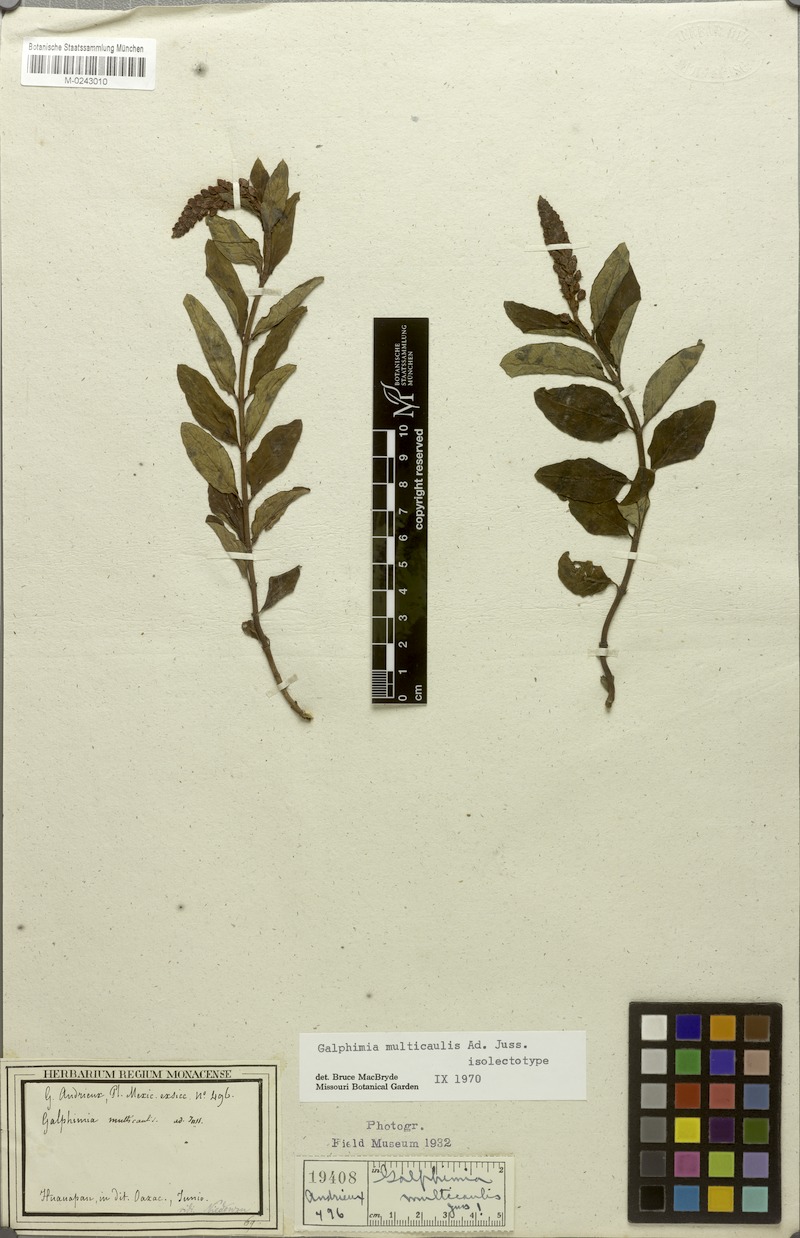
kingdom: Plantae
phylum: Tracheophyta
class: Magnoliopsida
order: Malpighiales
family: Malpighiaceae
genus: Galphimia
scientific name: Galphimia multicaulis
